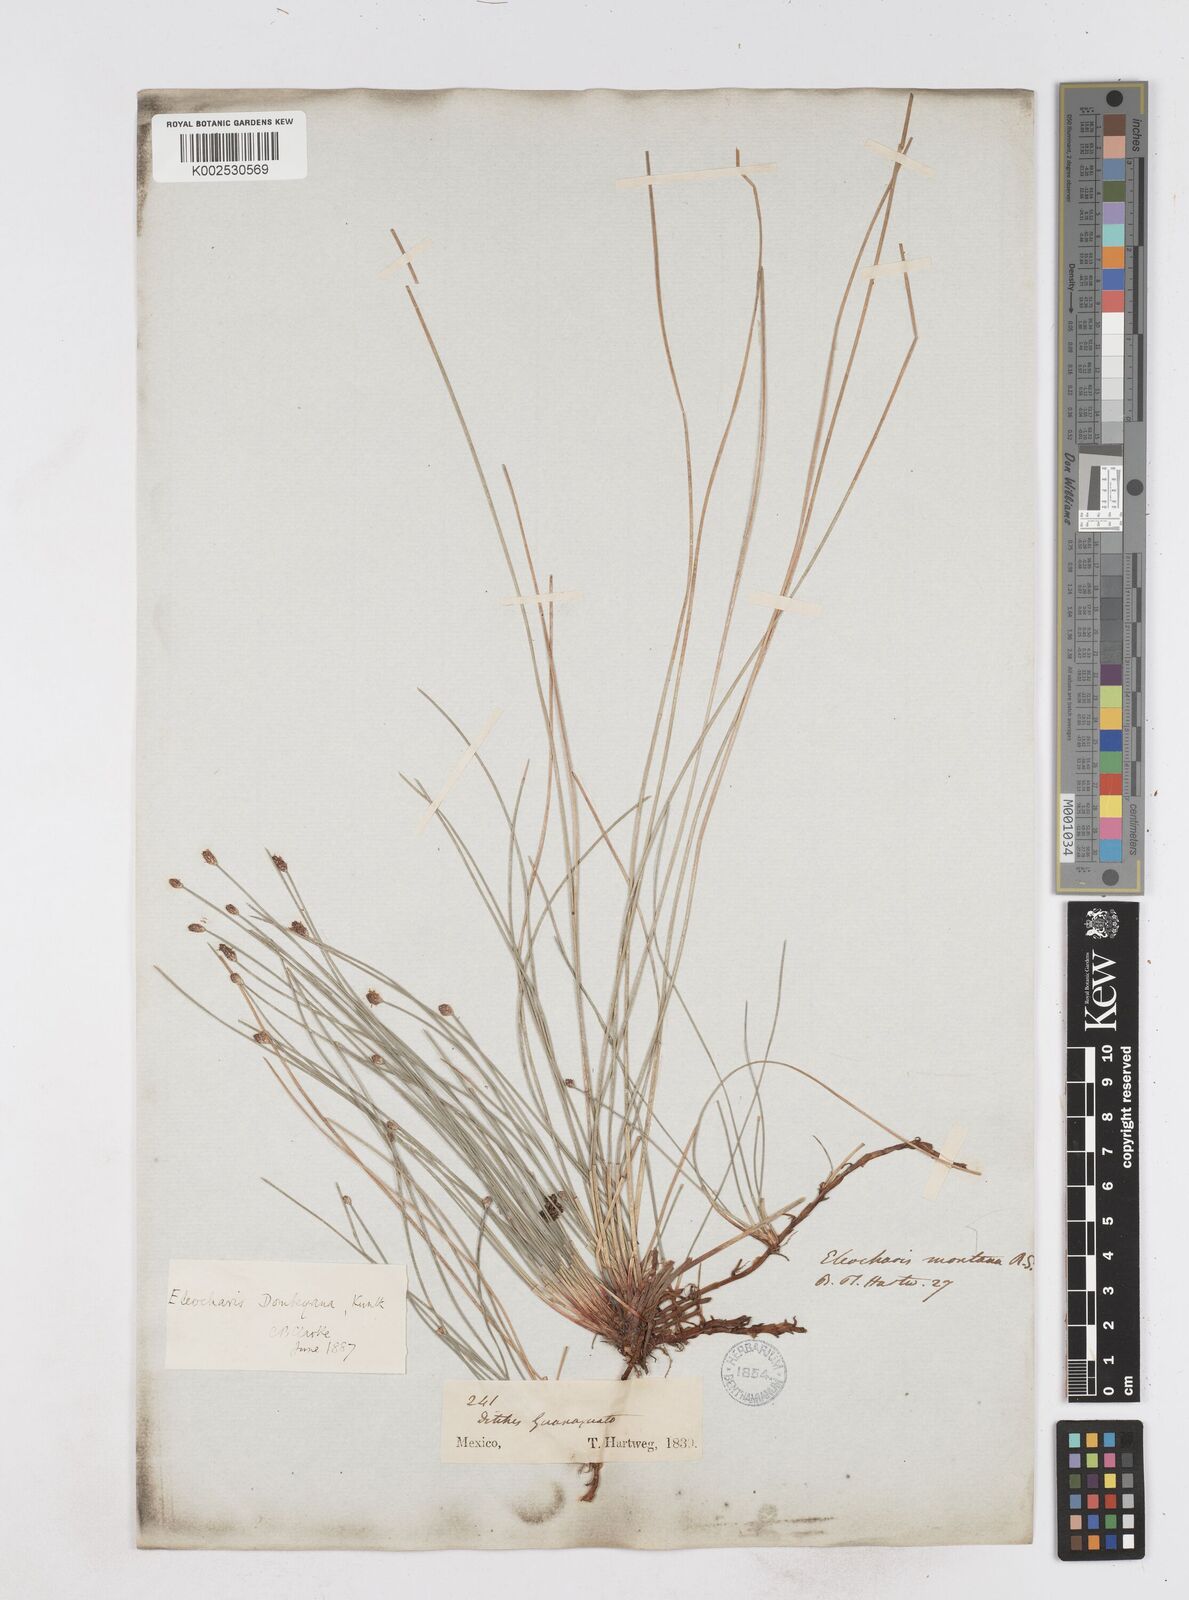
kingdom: Plantae
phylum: Tracheophyta
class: Liliopsida
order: Poales
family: Cyperaceae
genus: Eleocharis
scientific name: Eleocharis montana
